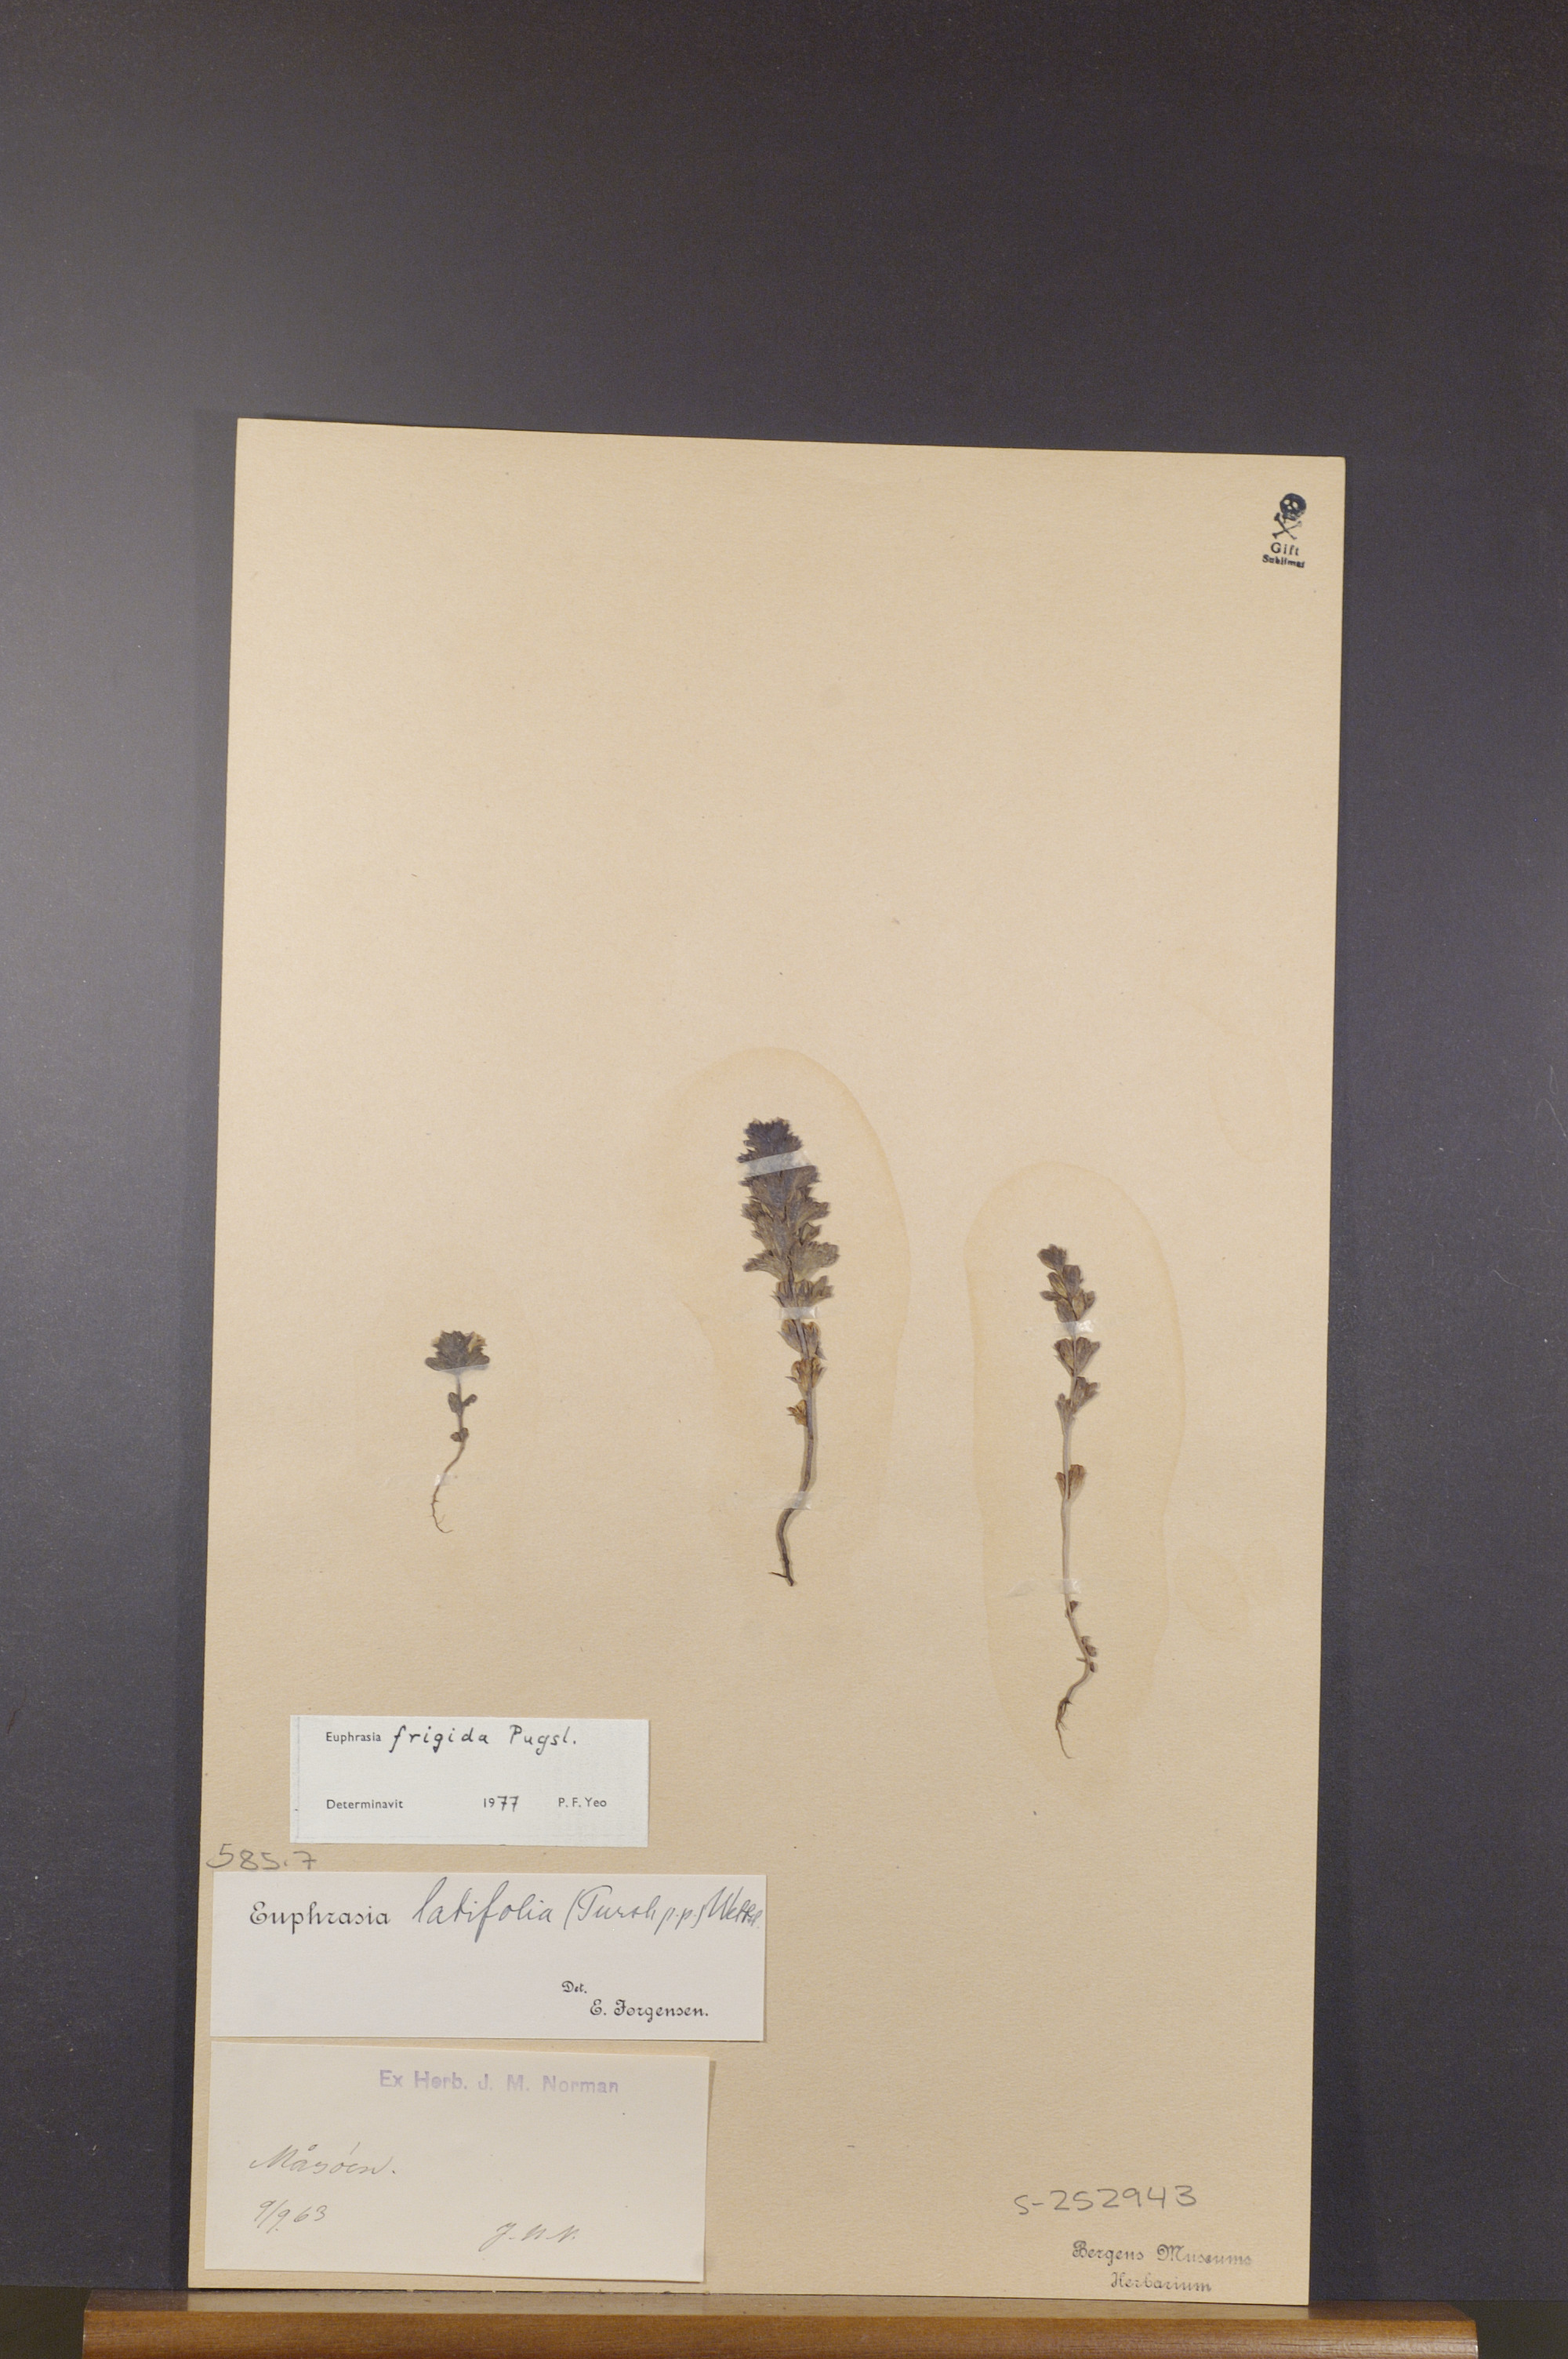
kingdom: Plantae
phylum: Tracheophyta
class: Magnoliopsida
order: Lamiales
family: Orobanchaceae
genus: Euphrasia
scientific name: Euphrasia frigida
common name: An eyebright
